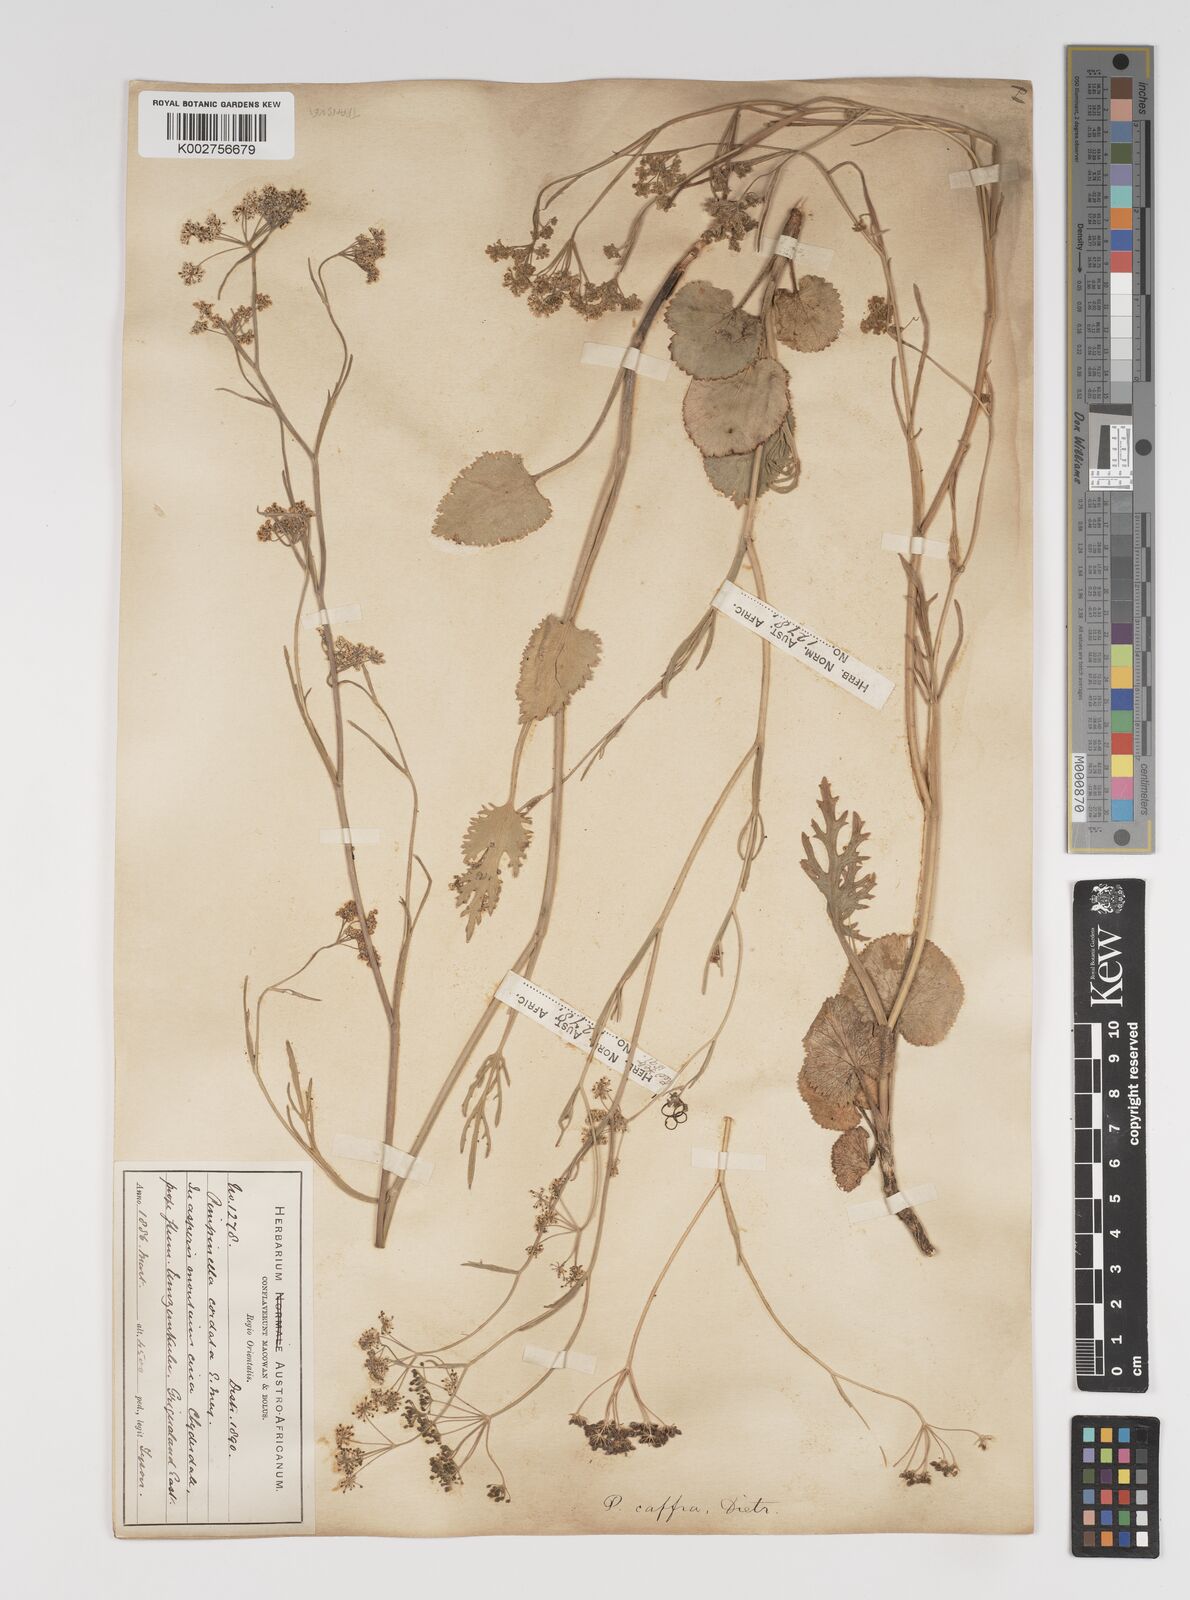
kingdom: Plantae
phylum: Tracheophyta
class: Magnoliopsida
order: Apiales
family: Apiaceae
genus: Pimpinella
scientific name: Pimpinella
